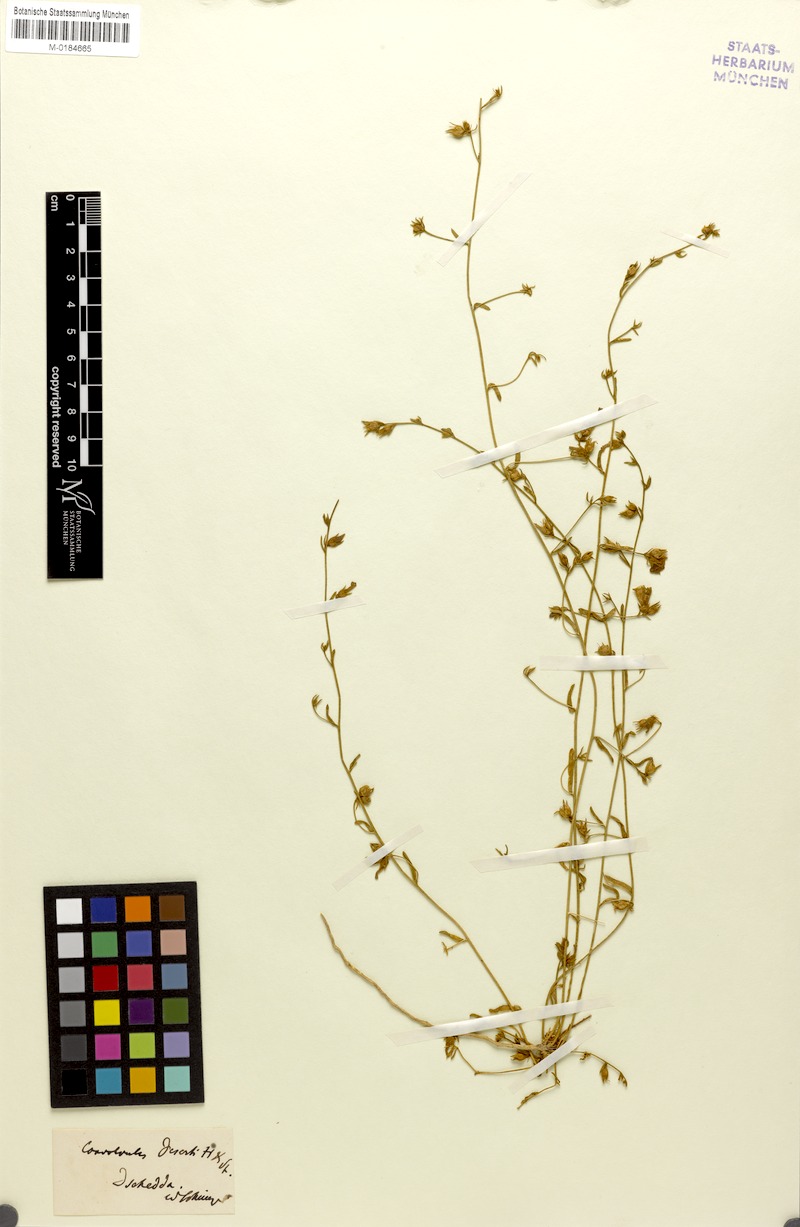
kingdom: Plantae
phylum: Tracheophyta
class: Magnoliopsida
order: Solanales
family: Convolvulaceae
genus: Convolvulus
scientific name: Convolvulus prostratus
